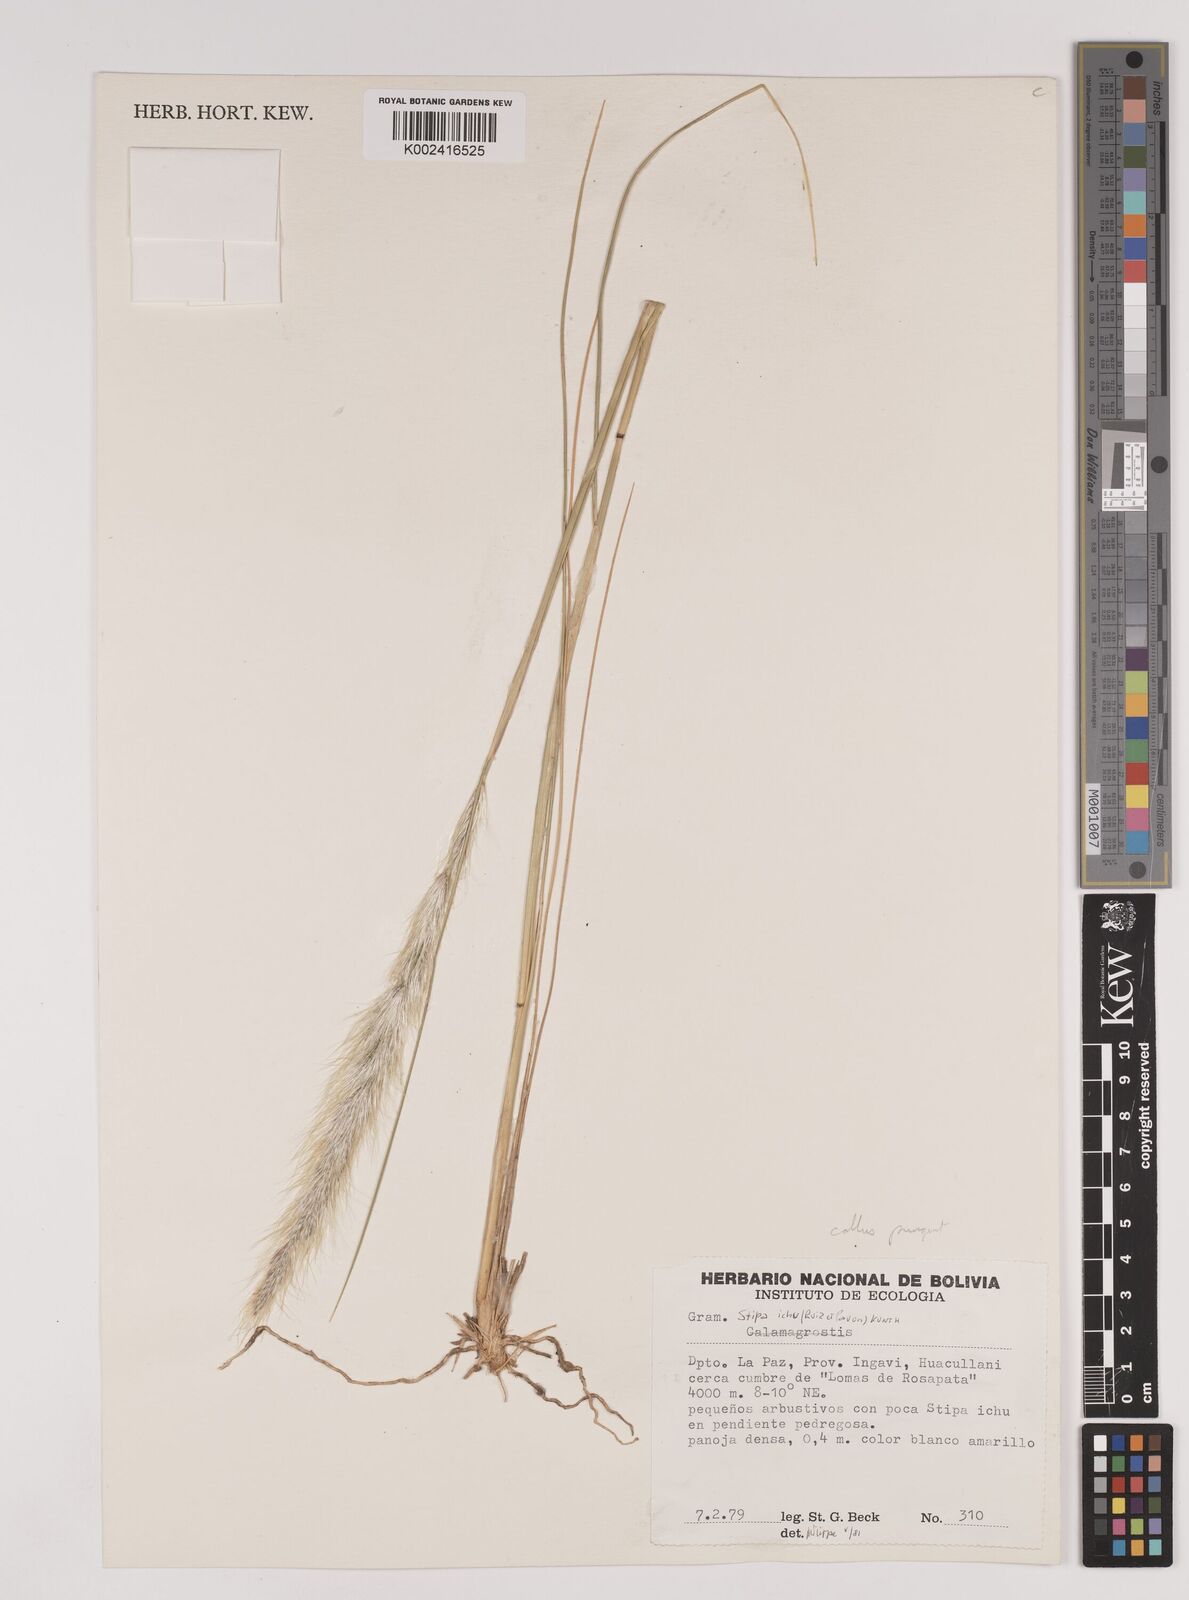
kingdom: Plantae
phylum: Tracheophyta
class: Liliopsida
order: Poales
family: Poaceae
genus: Jarava
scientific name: Jarava ichu
